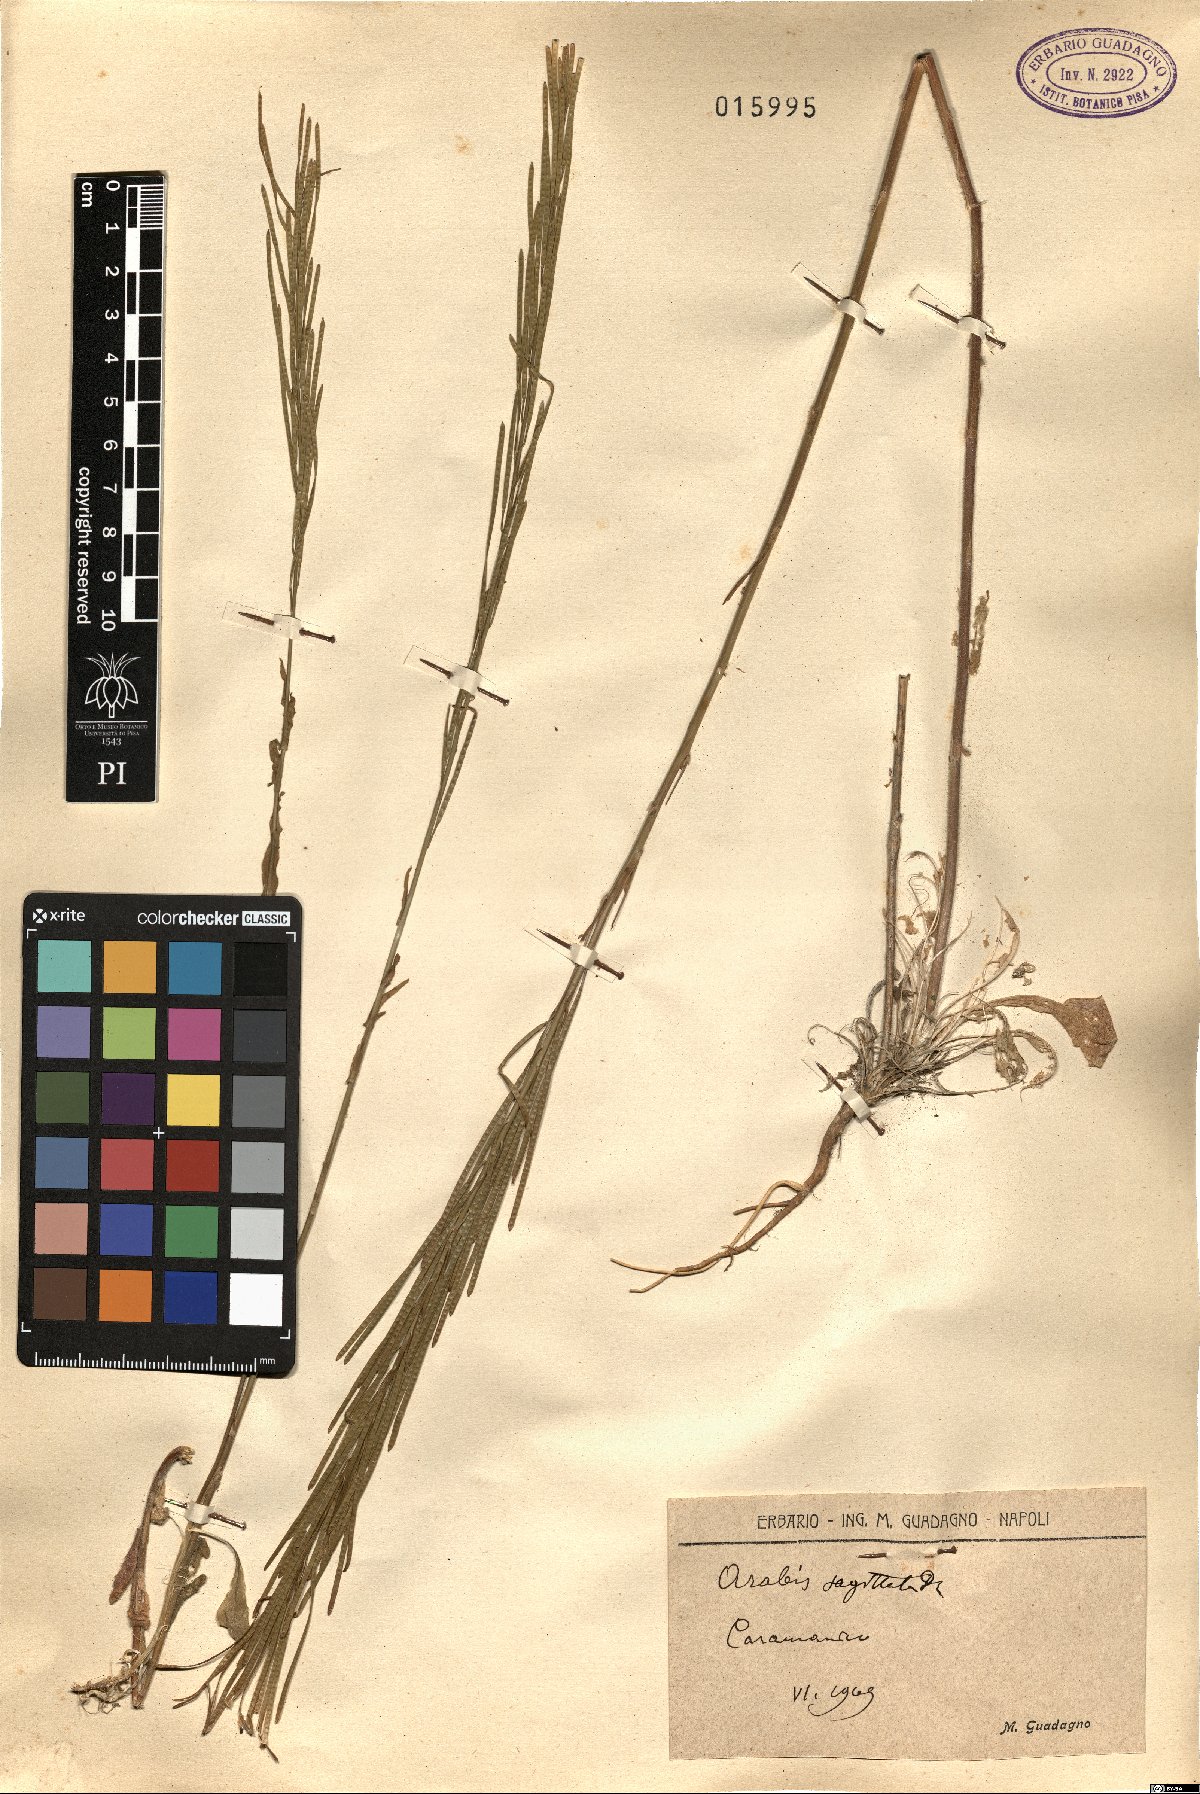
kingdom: Plantae
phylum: Tracheophyta
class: Magnoliopsida
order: Brassicales
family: Brassicaceae
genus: Arabis
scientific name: Arabis sagittata
